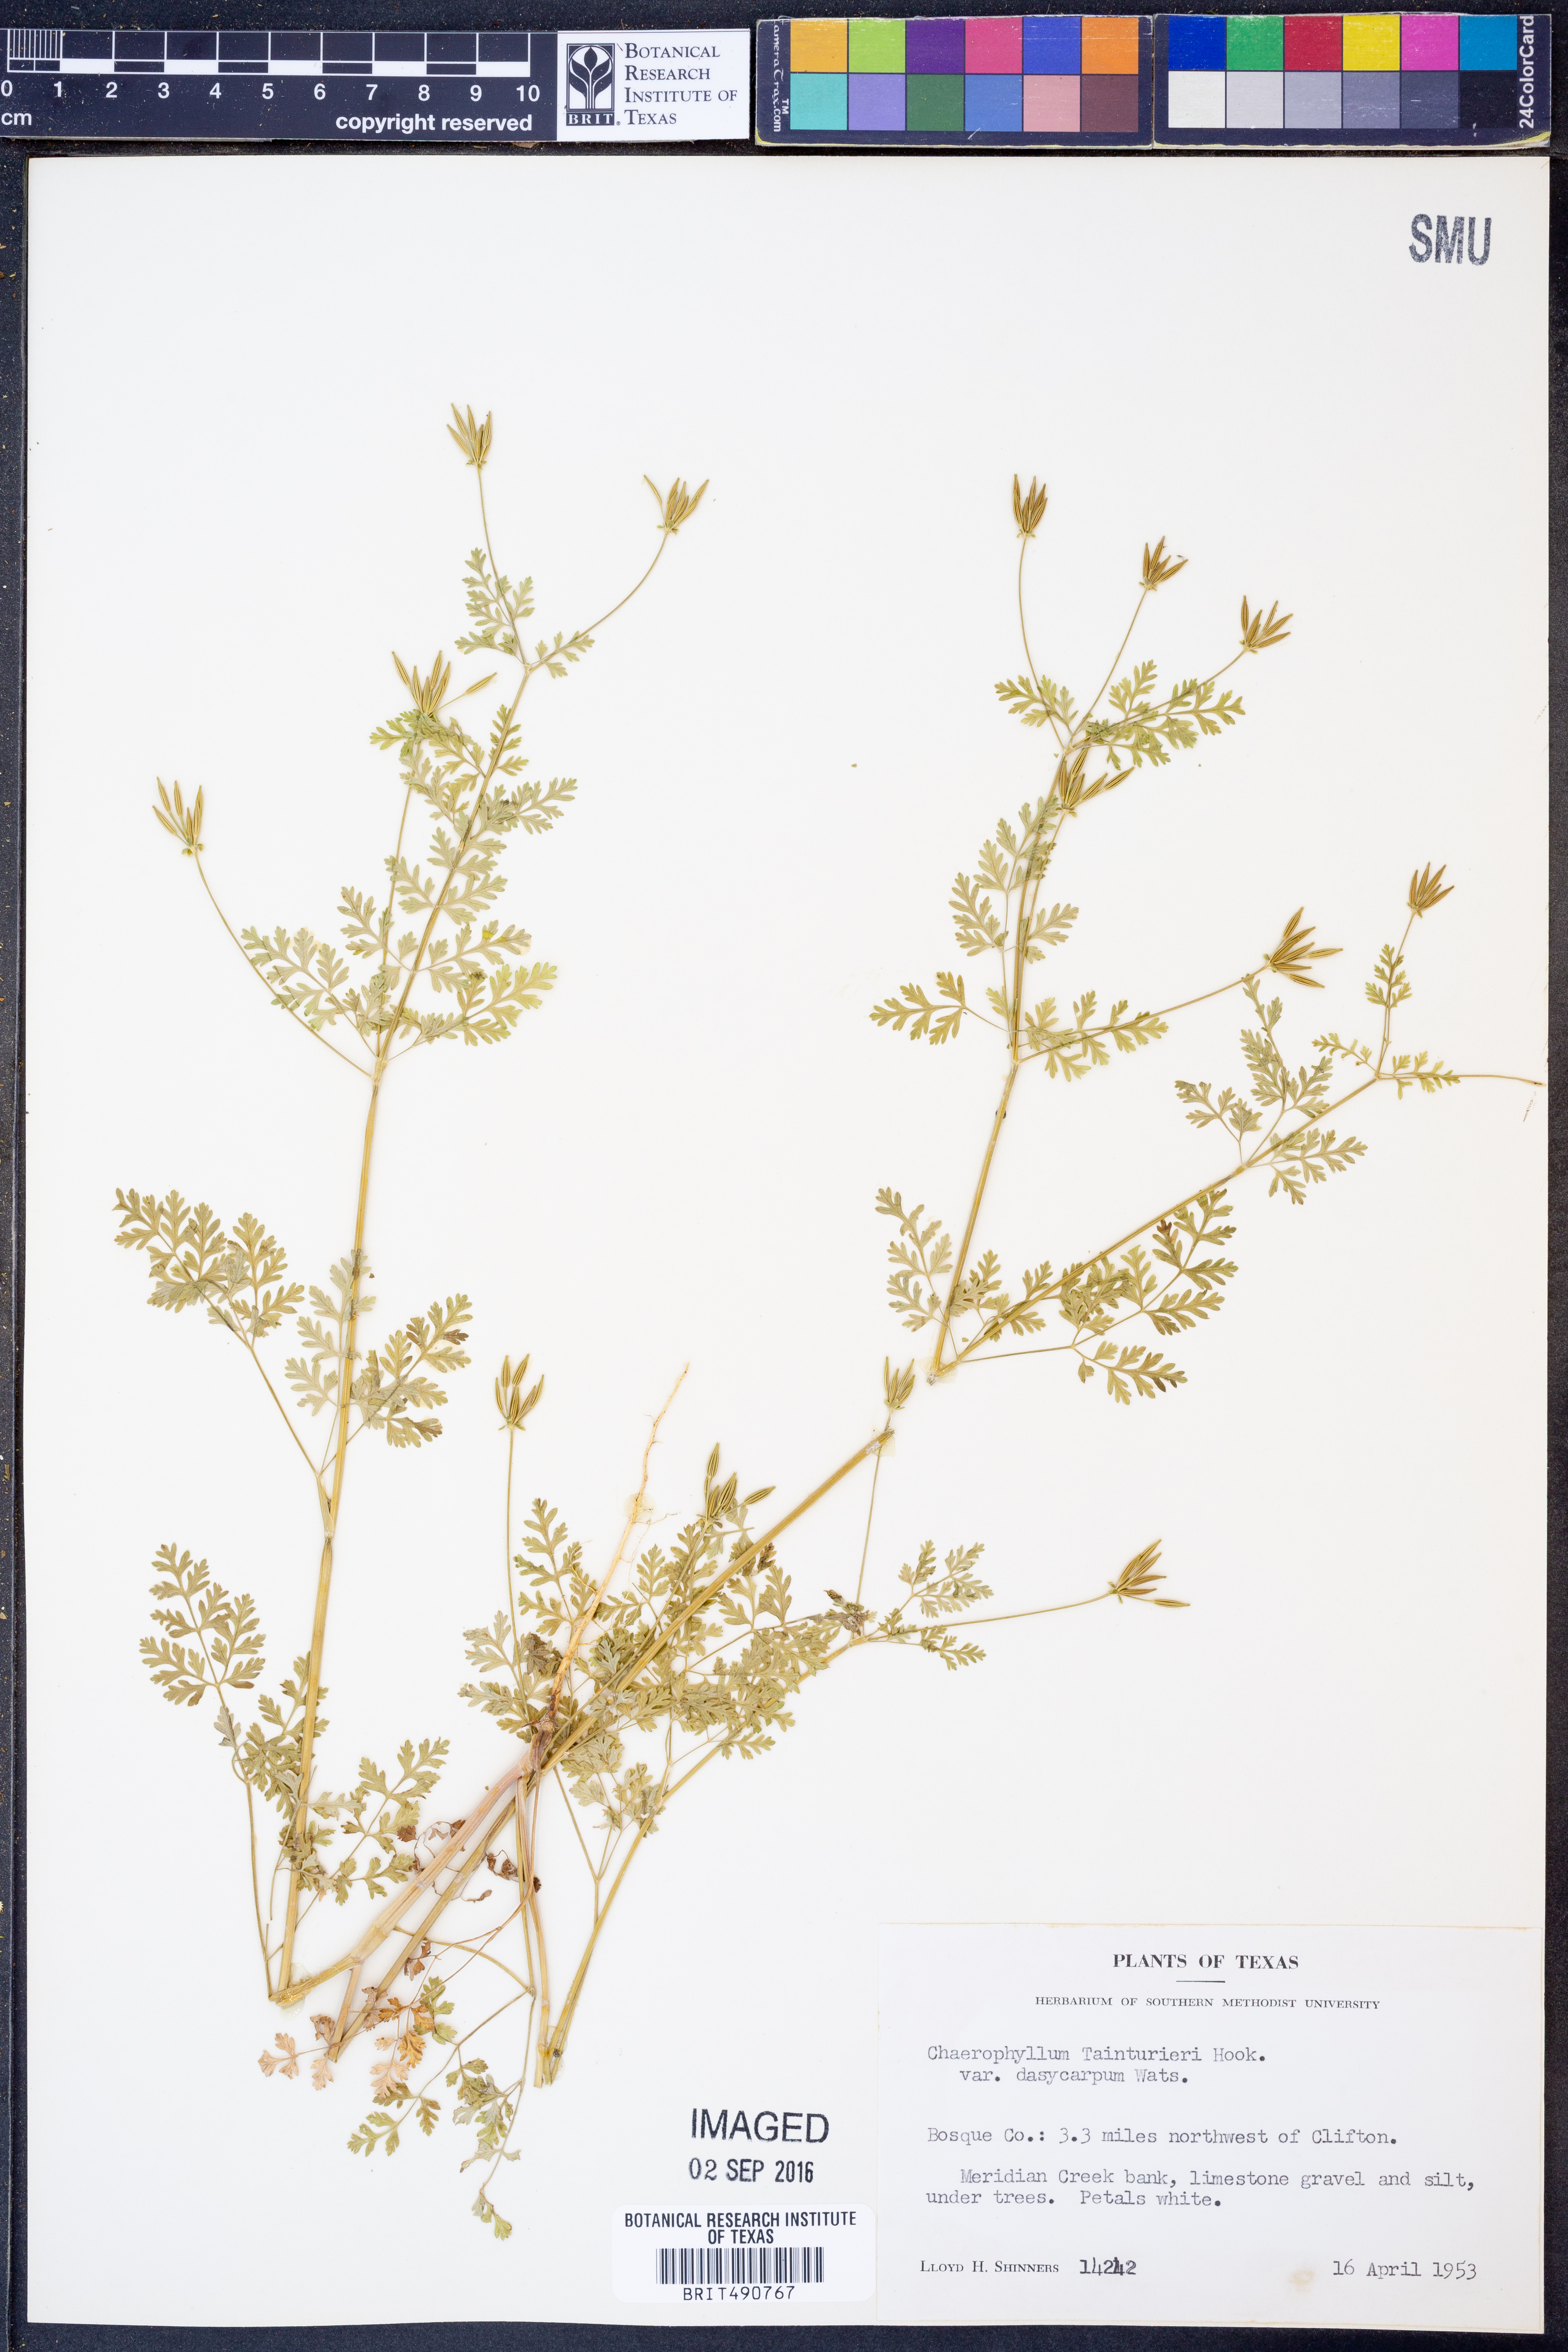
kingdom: Plantae
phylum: Tracheophyta
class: Magnoliopsida
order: Apiales
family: Apiaceae
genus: Chaerophyllum
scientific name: Chaerophyllum dasycarpum
